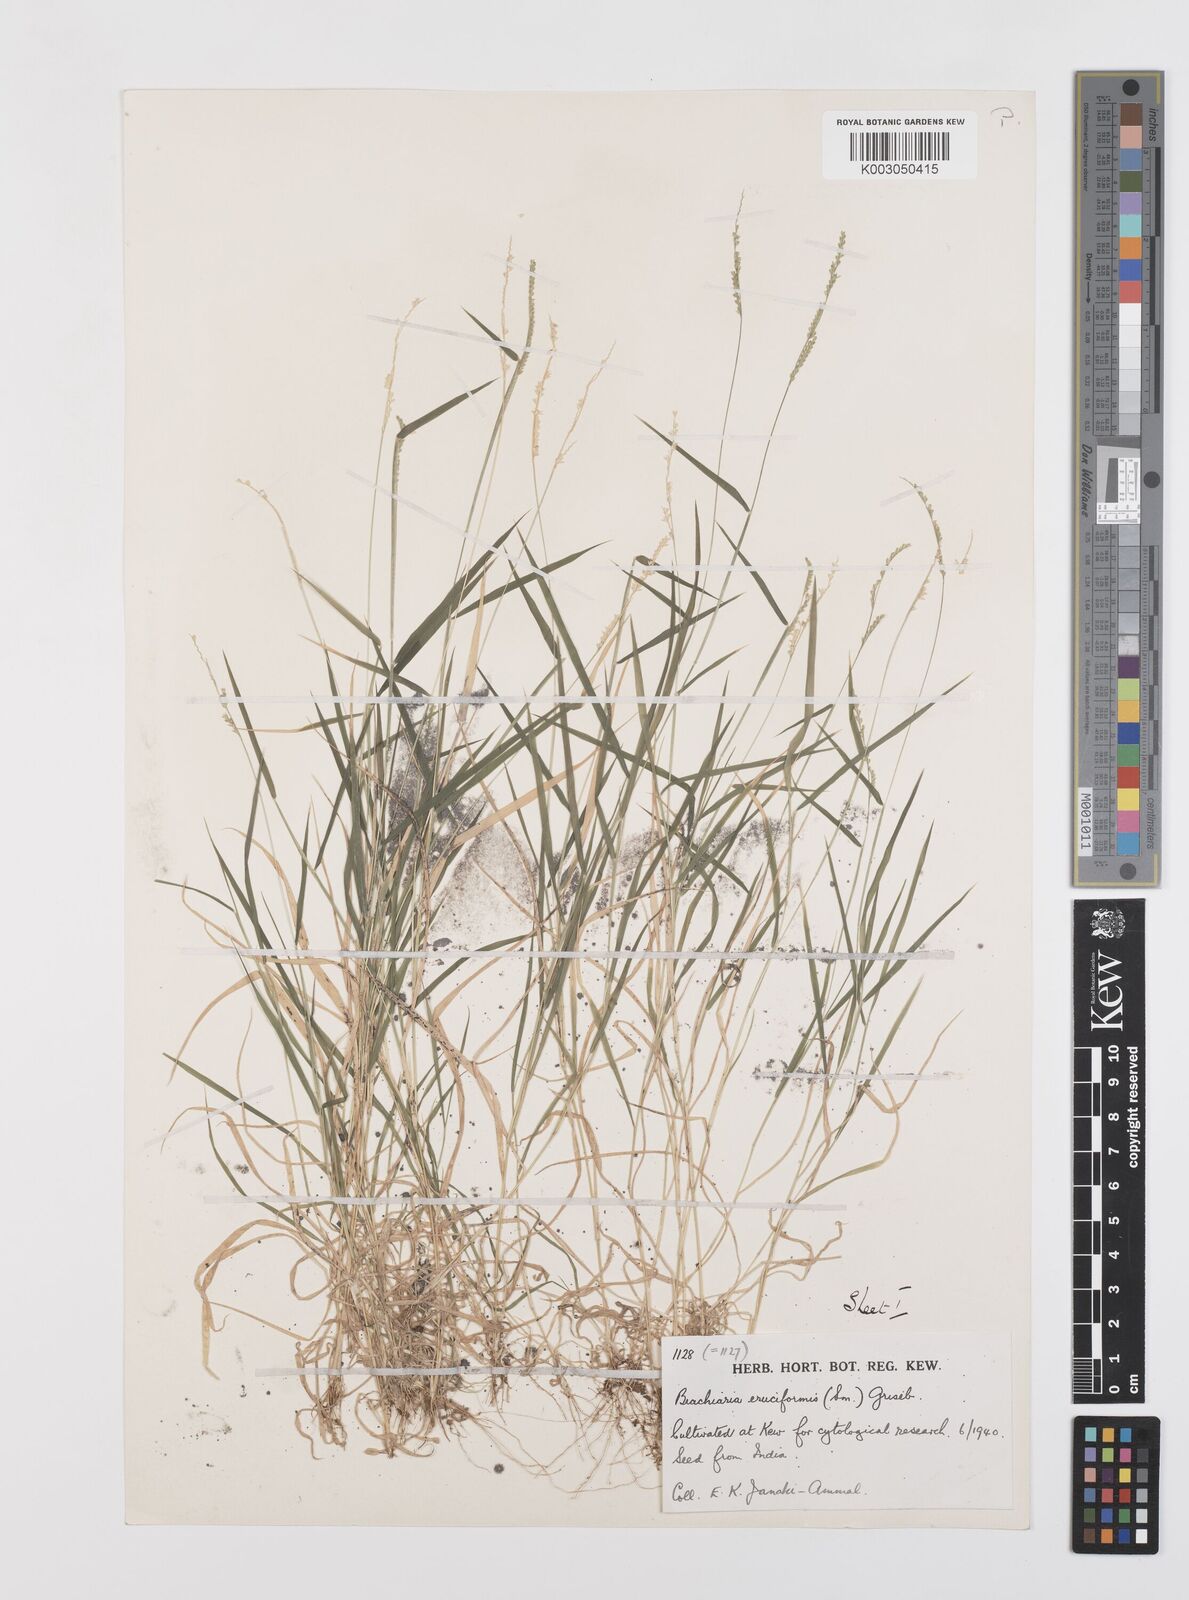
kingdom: Plantae
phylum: Tracheophyta
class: Liliopsida
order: Poales
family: Poaceae
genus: Moorochloa
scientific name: Moorochloa eruciformis
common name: Sweet signalgrass
